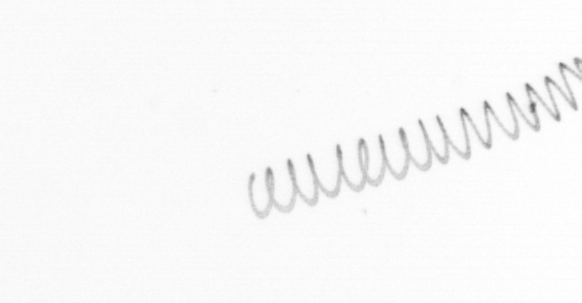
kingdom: Chromista
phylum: Ochrophyta
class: Bacillariophyceae
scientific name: Bacillariophyceae
